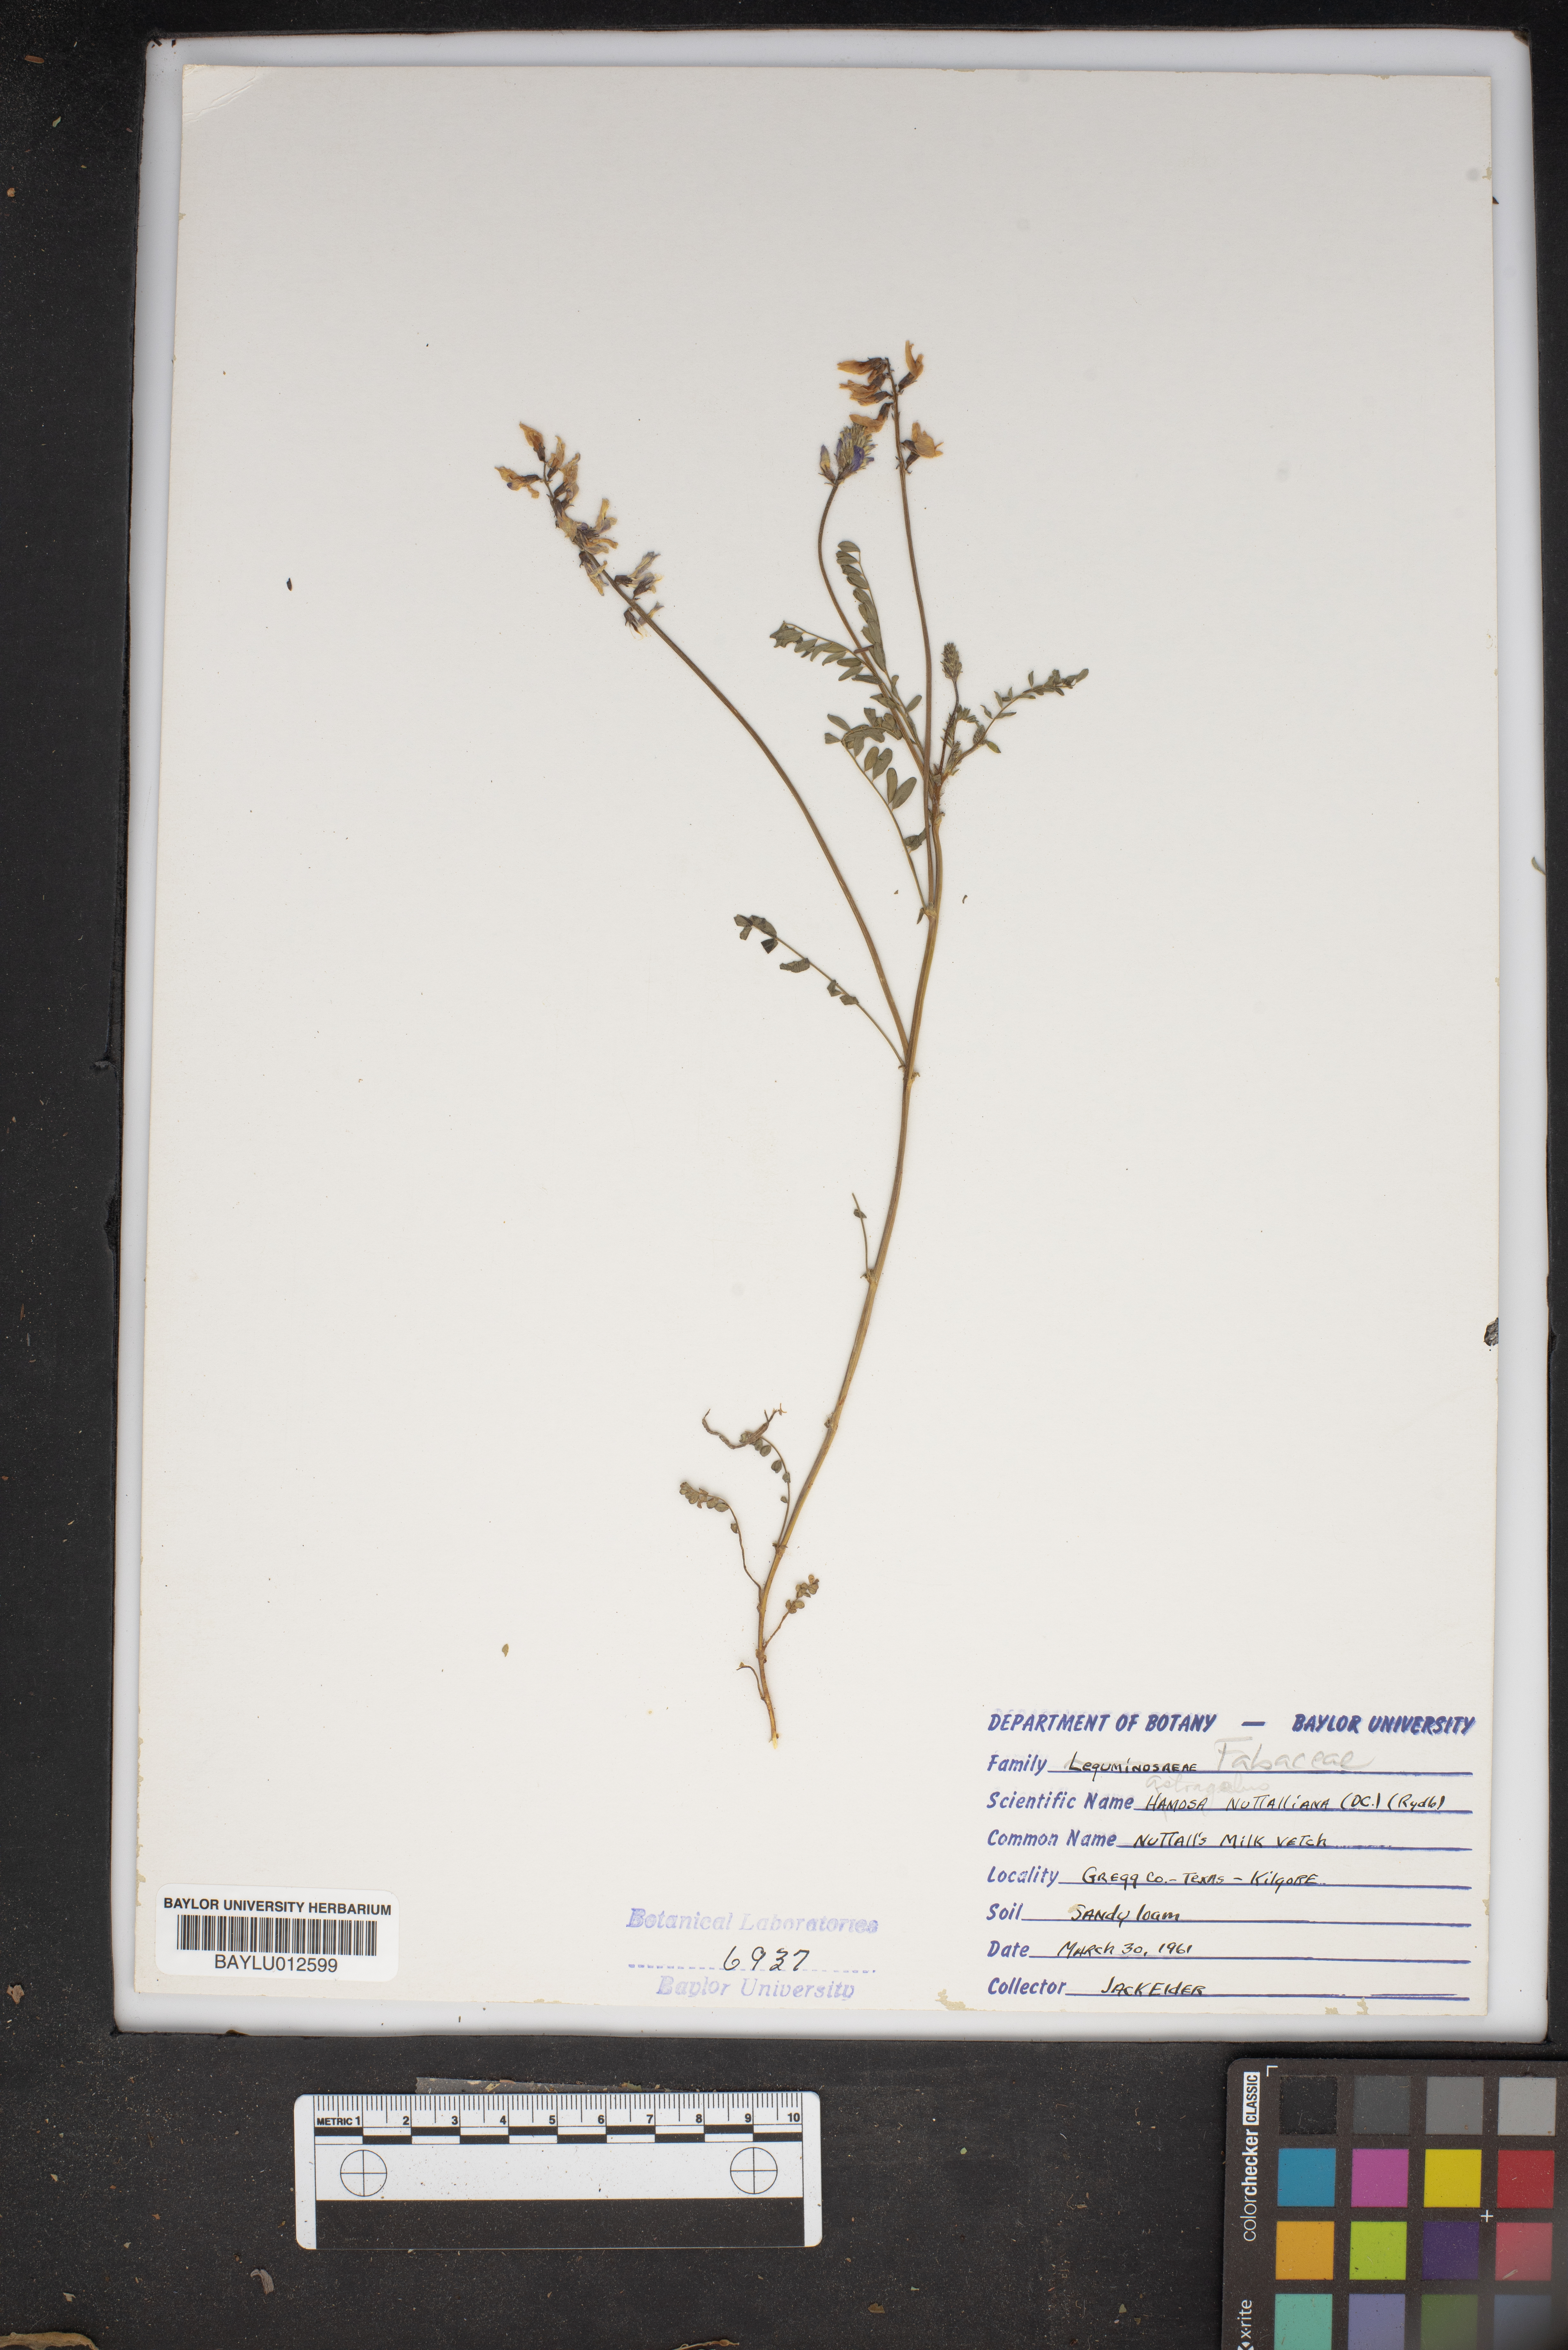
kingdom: Plantae
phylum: Tracheophyta
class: Magnoliopsida
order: Fabales
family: Fabaceae
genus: Astragalus
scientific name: Astragalus nuttallianus
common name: Smallflowered milkvetch
